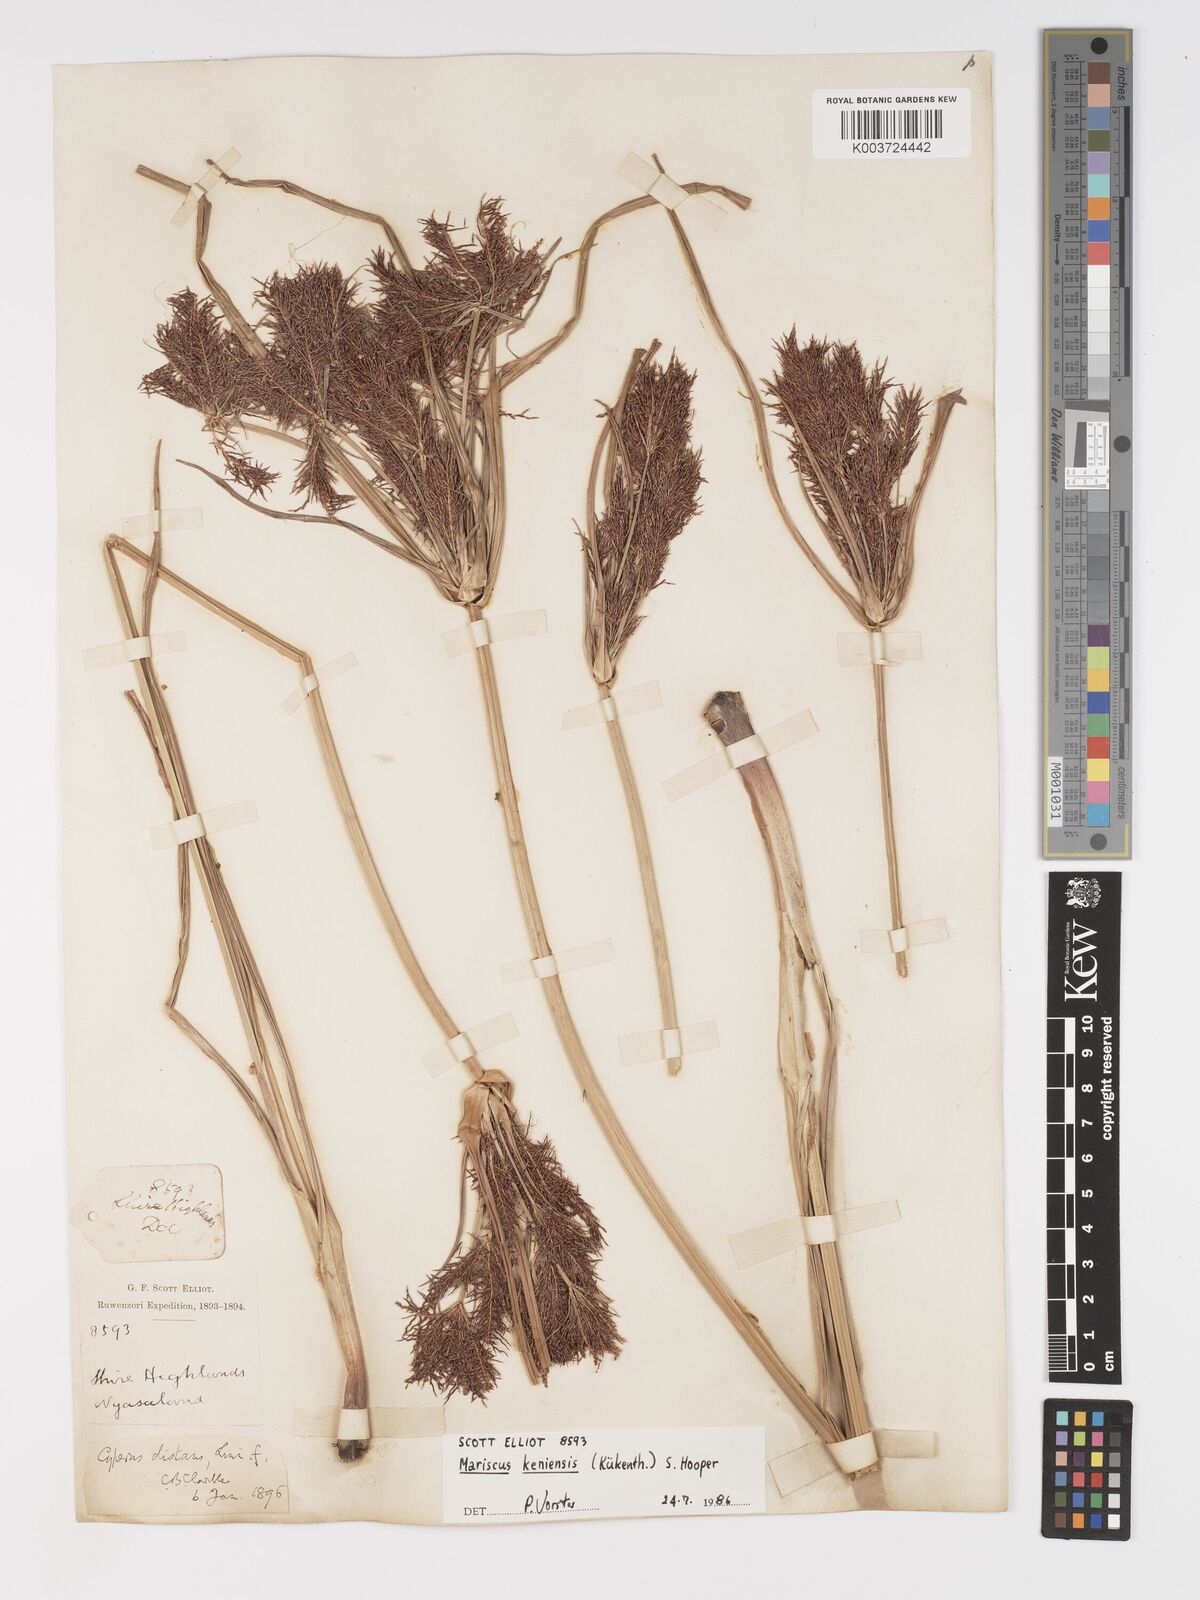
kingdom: Plantae
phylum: Tracheophyta
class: Liliopsida
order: Poales
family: Cyperaceae
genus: Cyperus
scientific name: Cyperus
